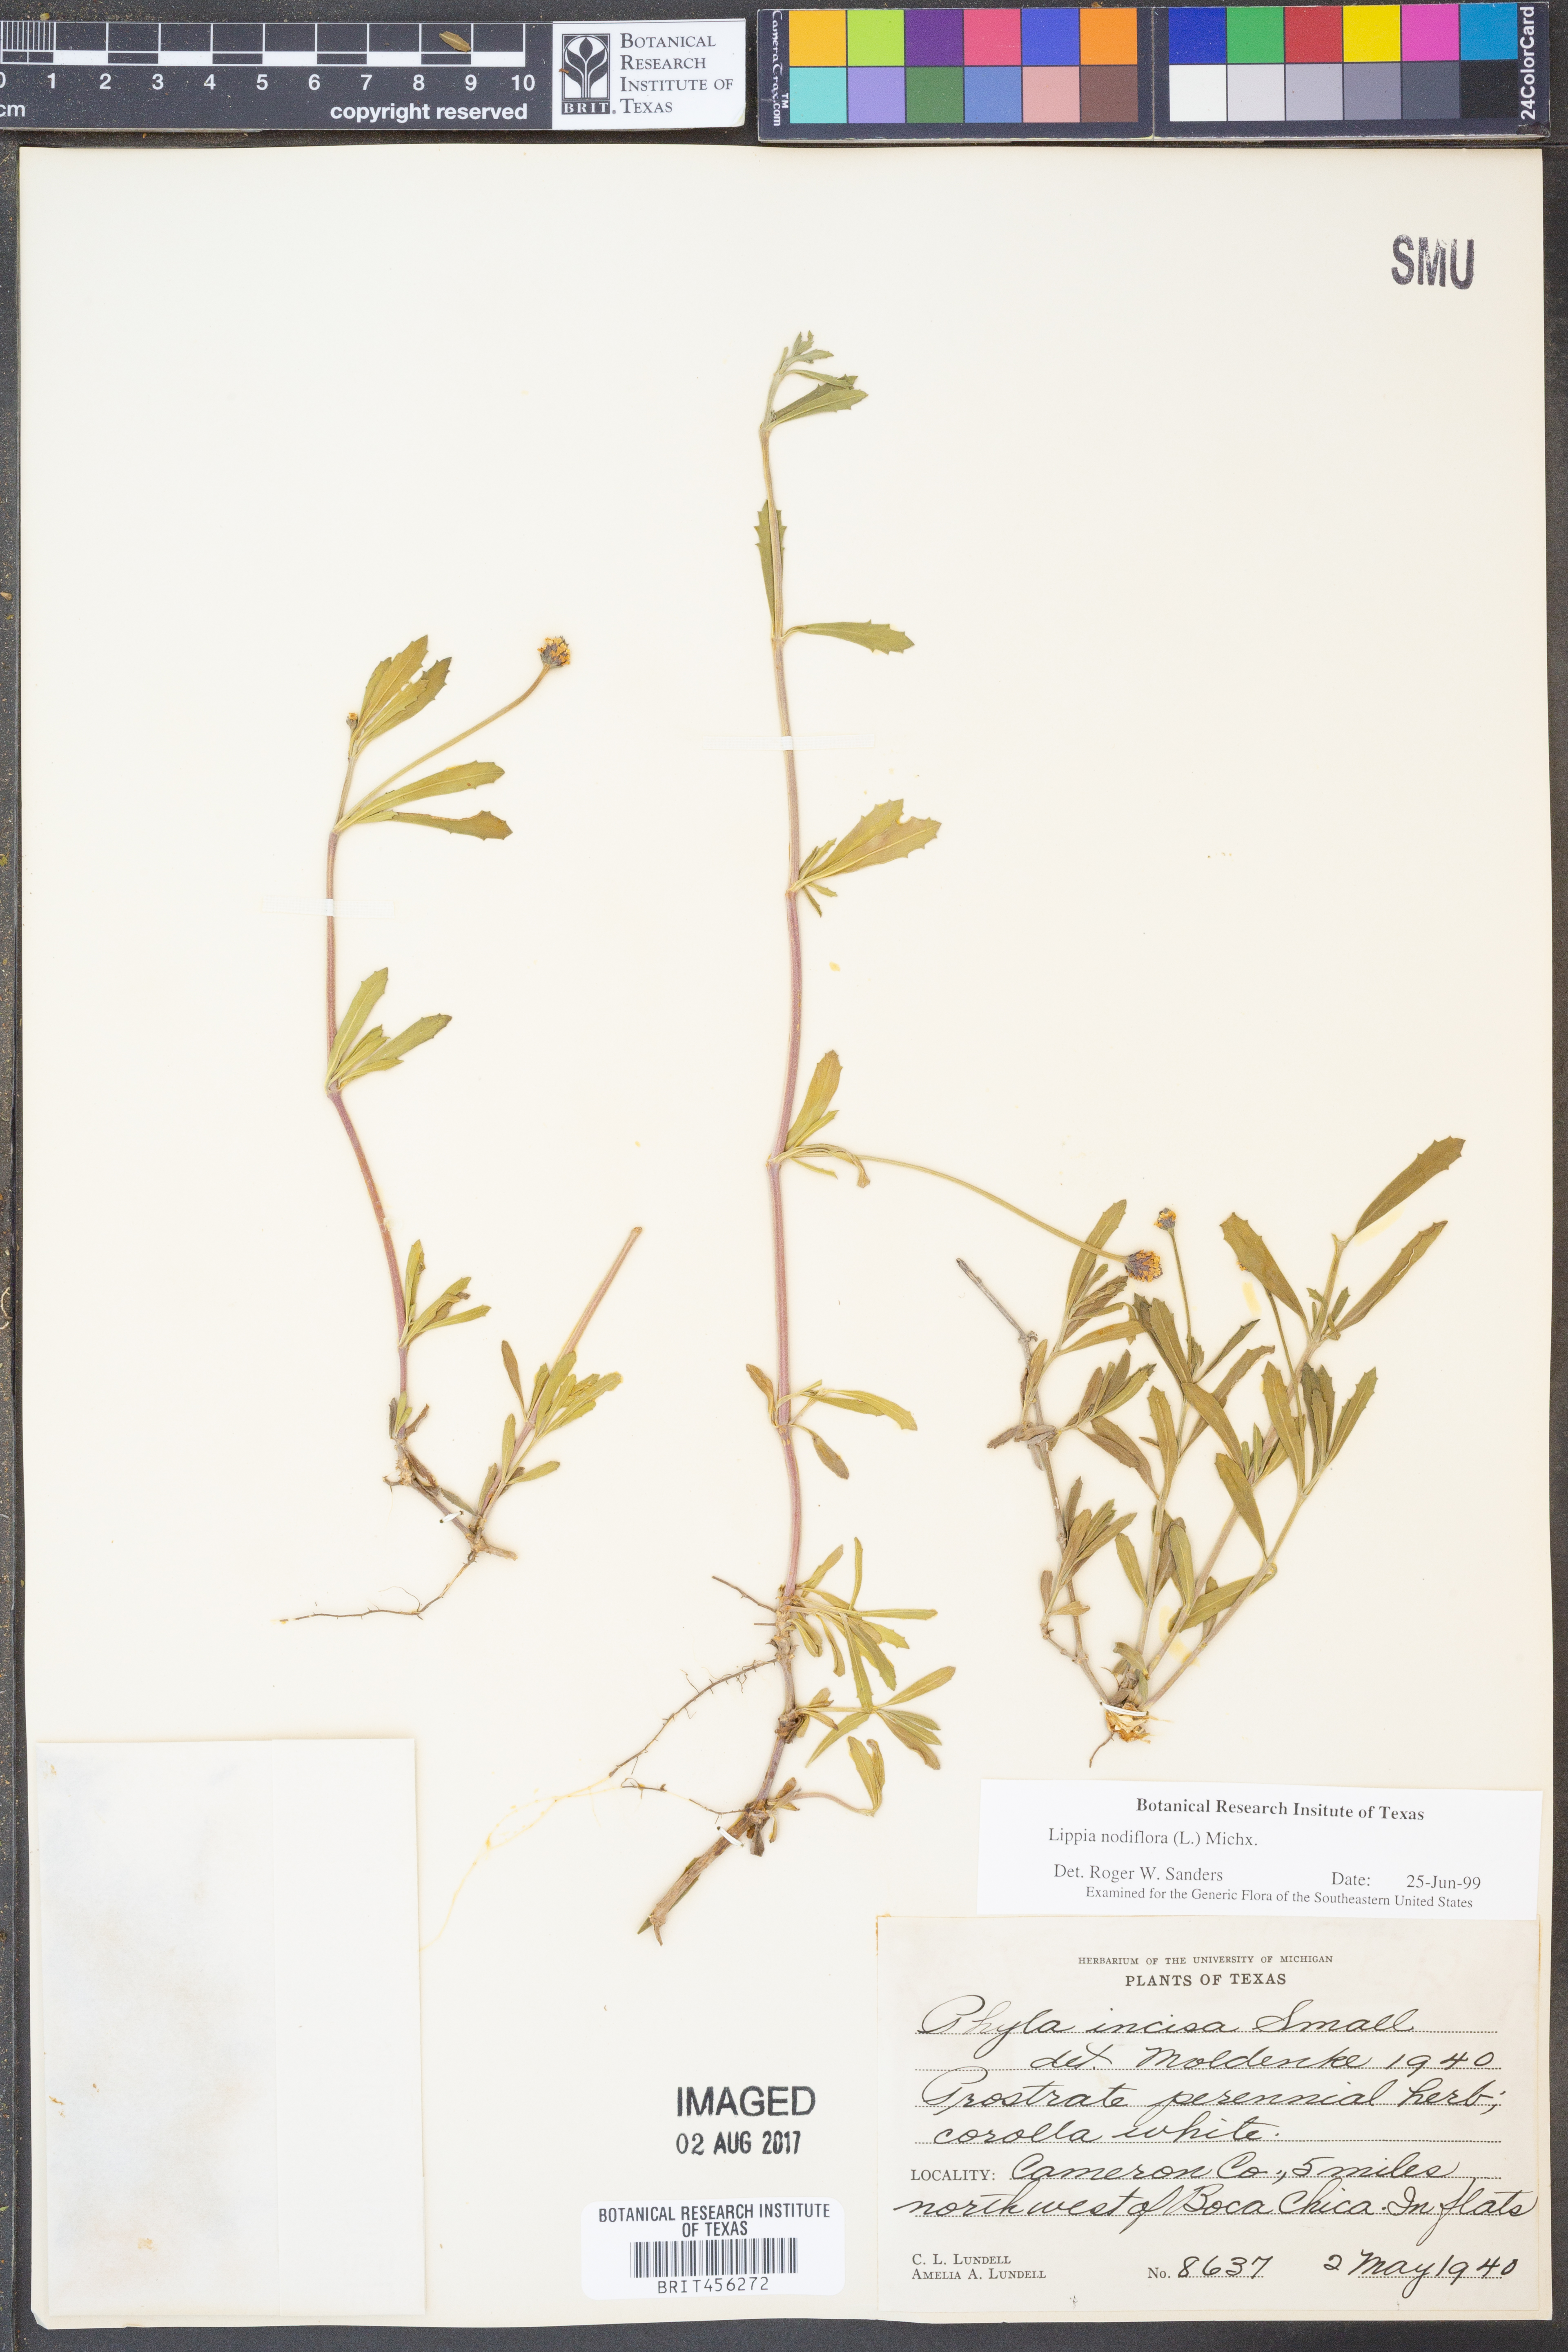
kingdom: Plantae
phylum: Tracheophyta
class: Magnoliopsida
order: Lamiales
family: Verbenaceae
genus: Phyla
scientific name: Phyla nodiflora
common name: Frogfruit
